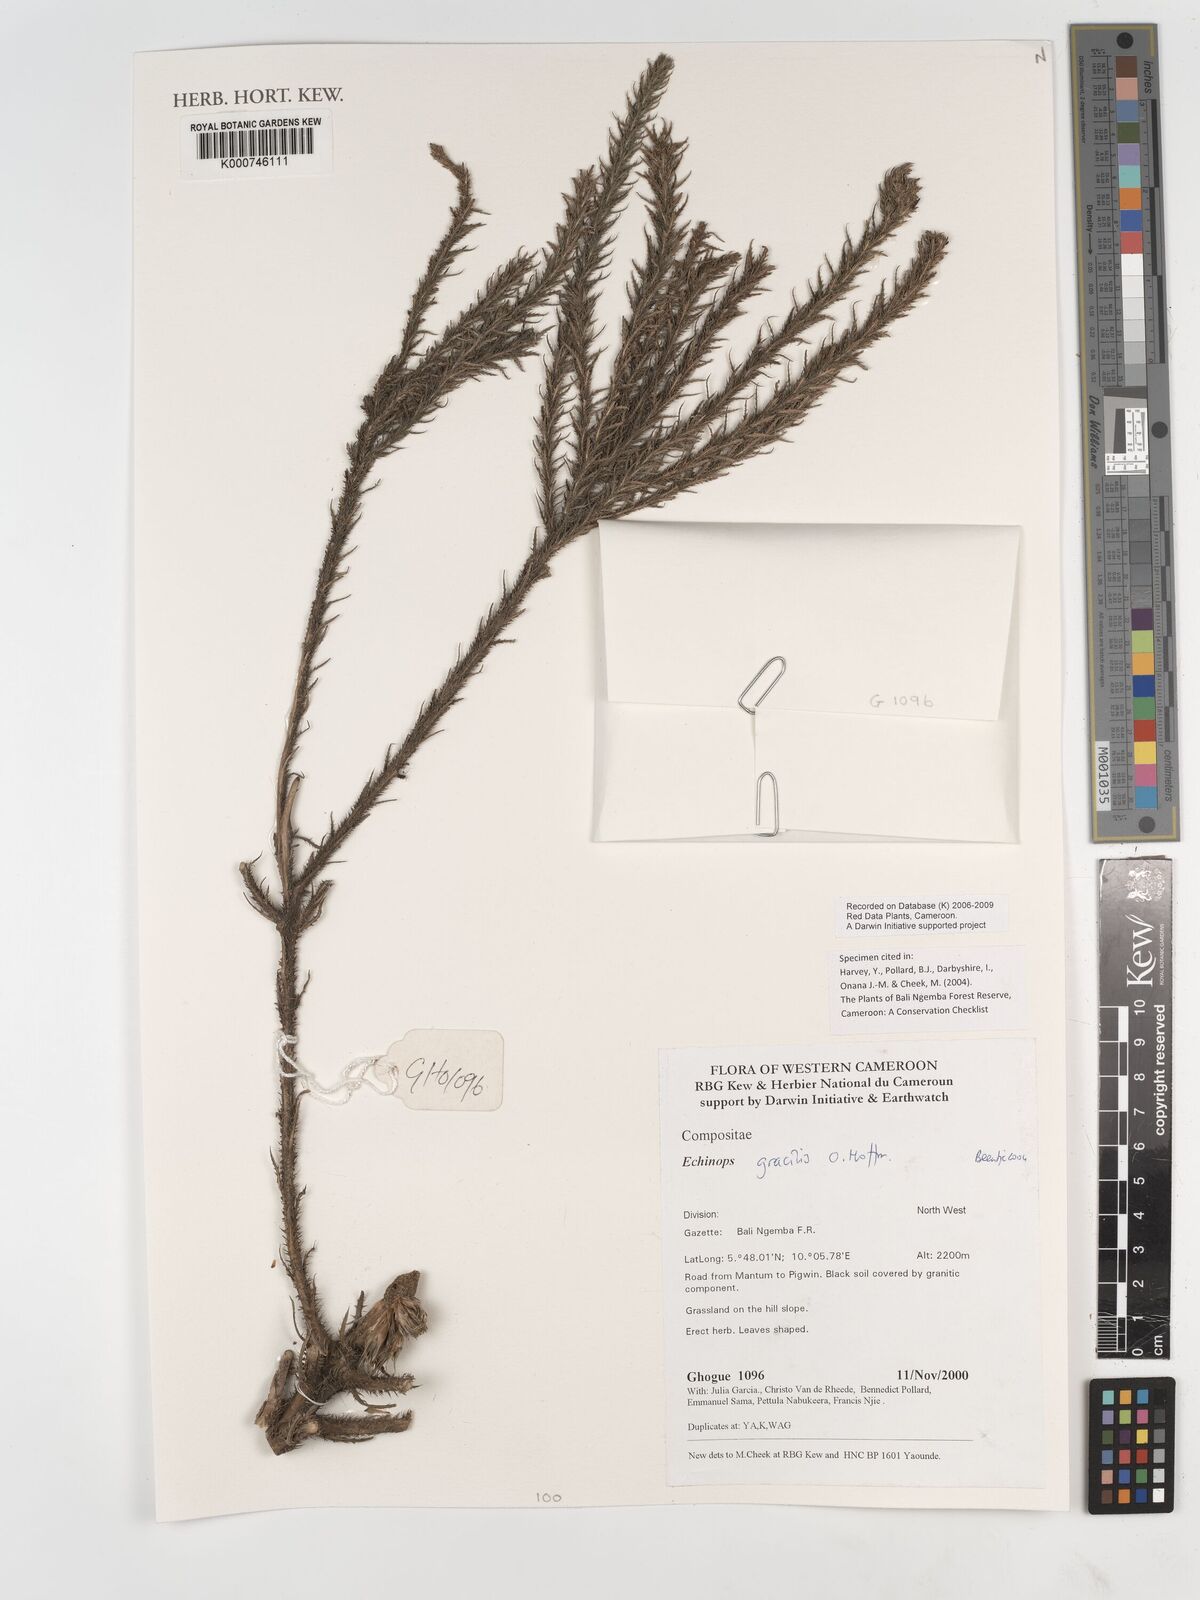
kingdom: Plantae
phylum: Tracheophyta
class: Magnoliopsida
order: Asterales
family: Asteraceae
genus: Echinops
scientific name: Echinops gracilis
